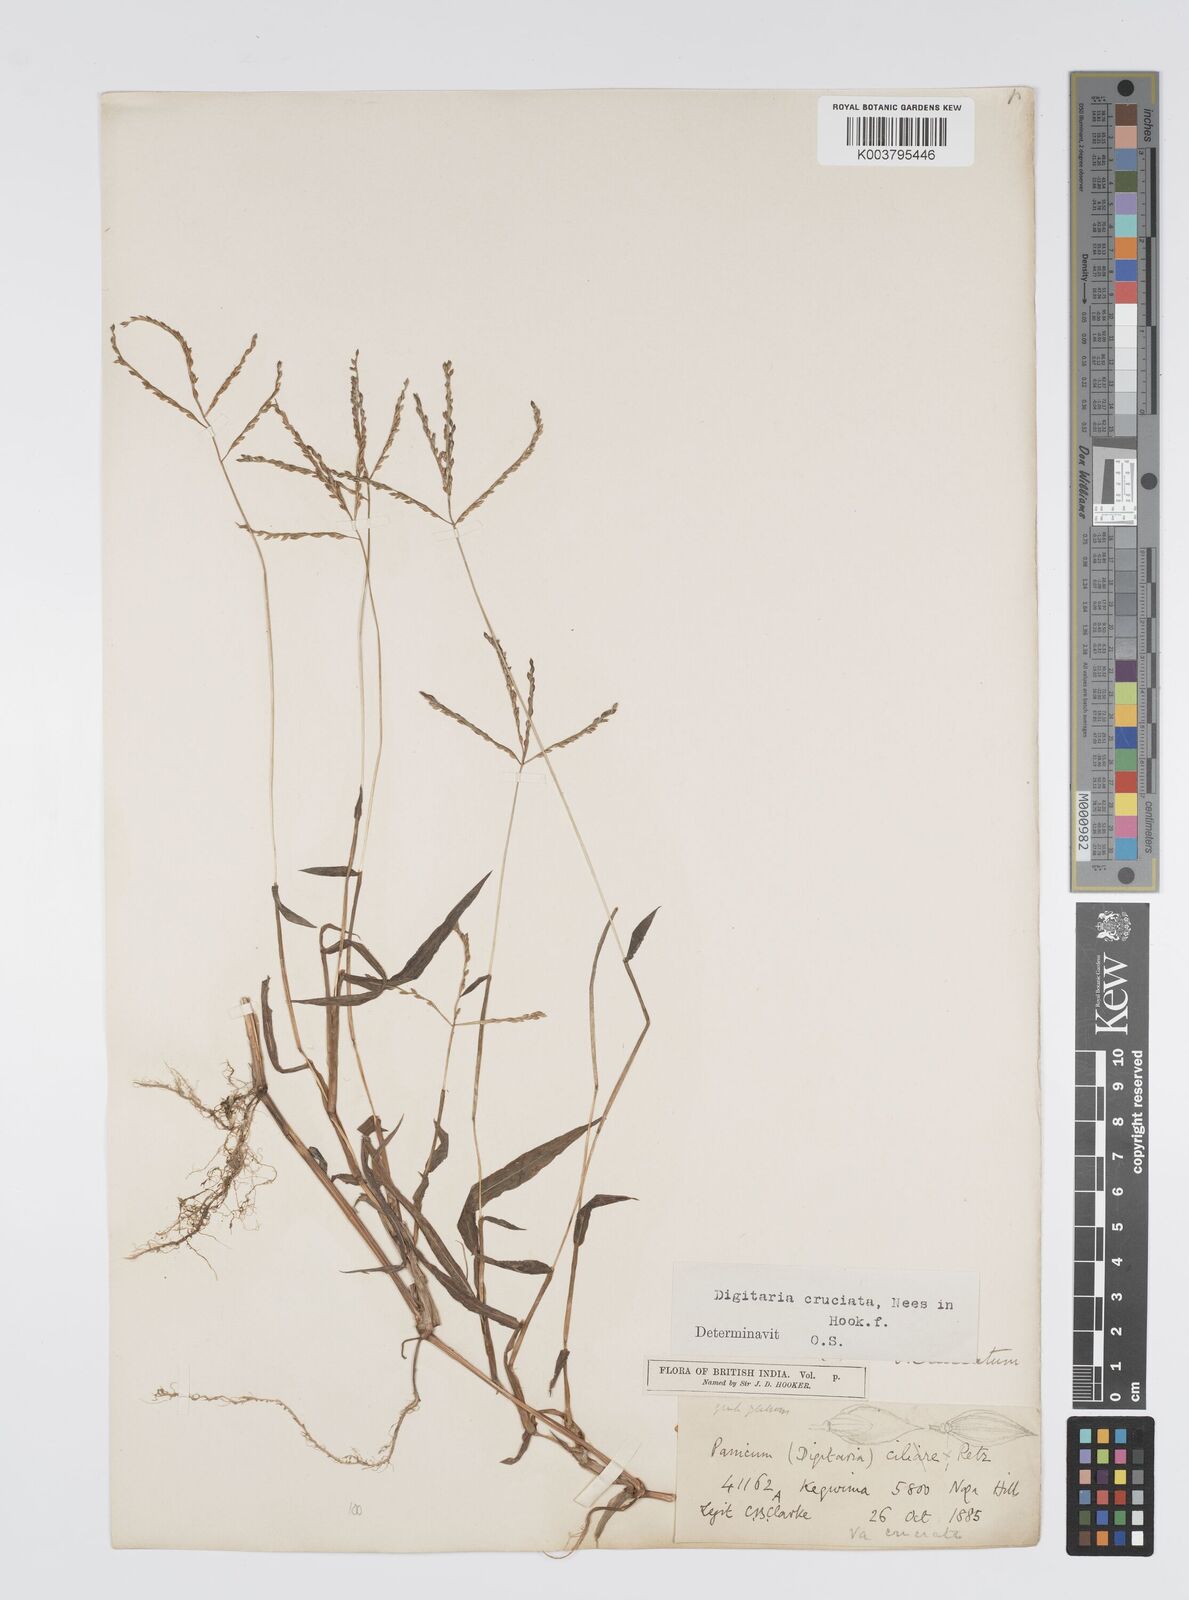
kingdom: Plantae
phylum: Tracheophyta
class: Liliopsida
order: Poales
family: Poaceae
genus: Digitaria
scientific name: Digitaria cruciata
